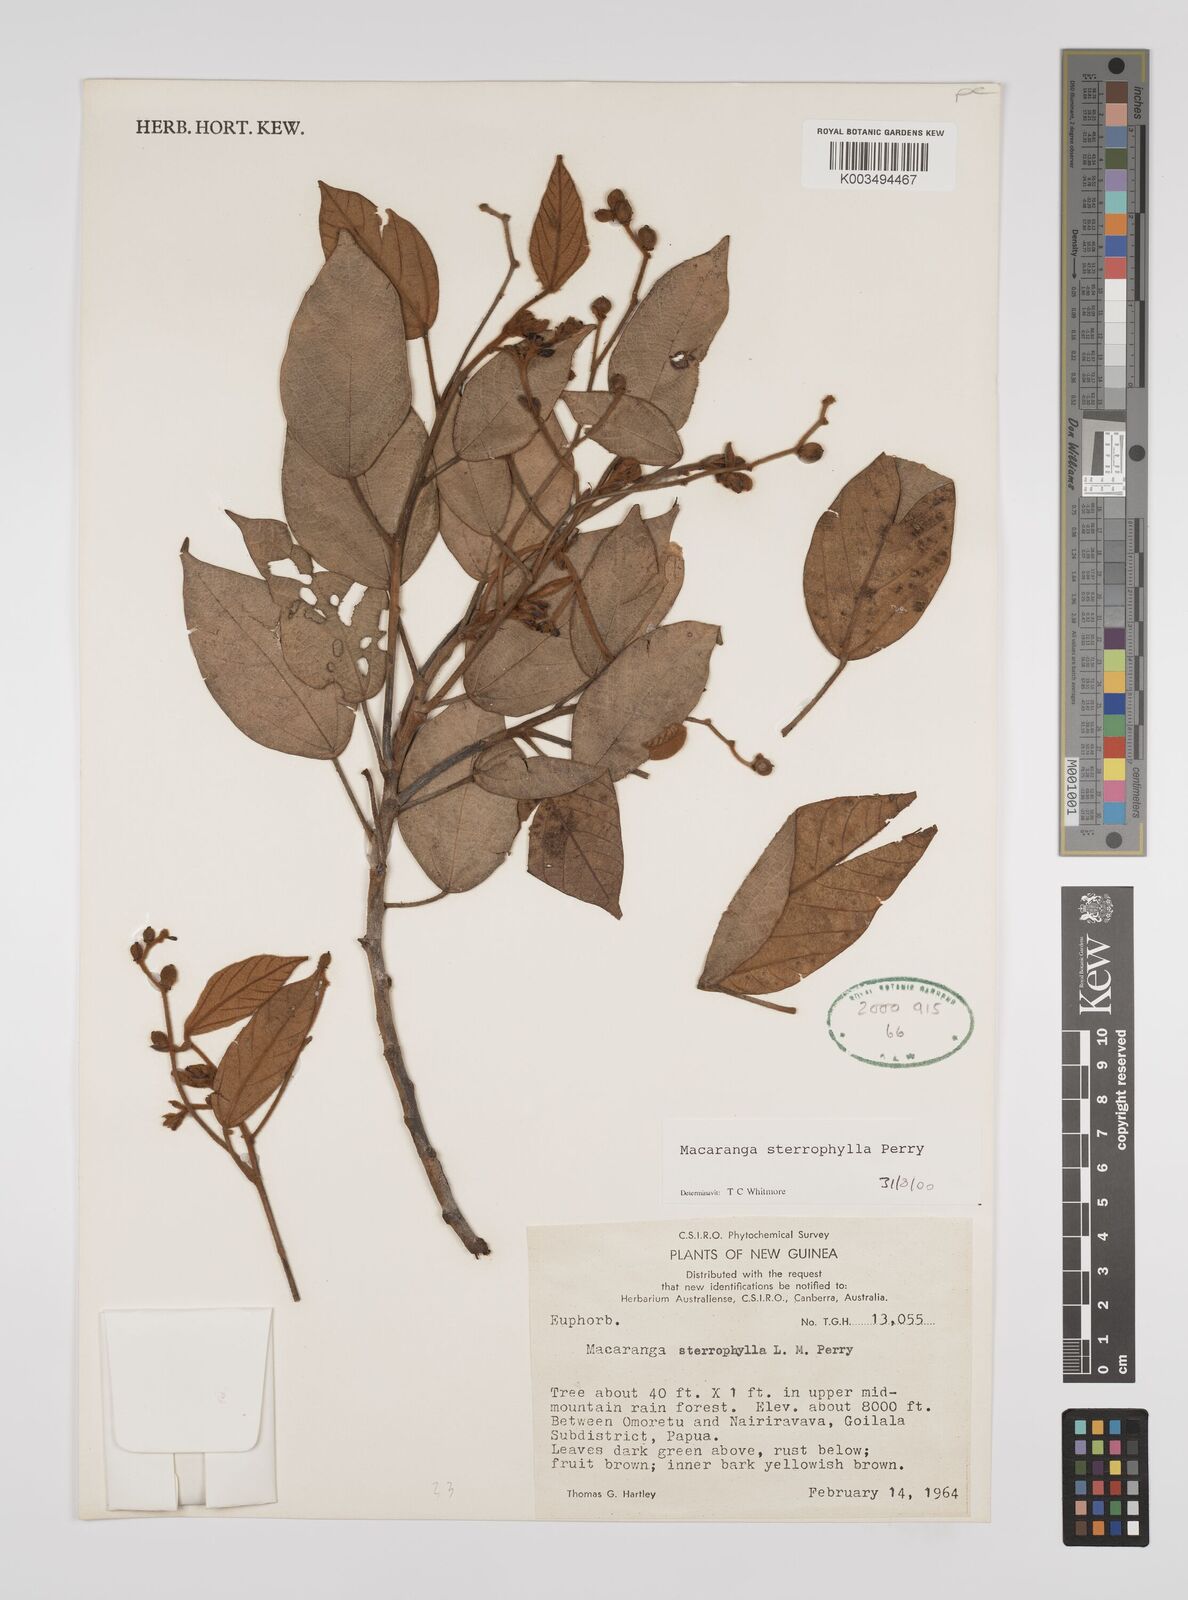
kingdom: Plantae
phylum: Tracheophyta
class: Magnoliopsida
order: Malpighiales
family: Euphorbiaceae
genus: Macaranga
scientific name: Macaranga stenophylla
